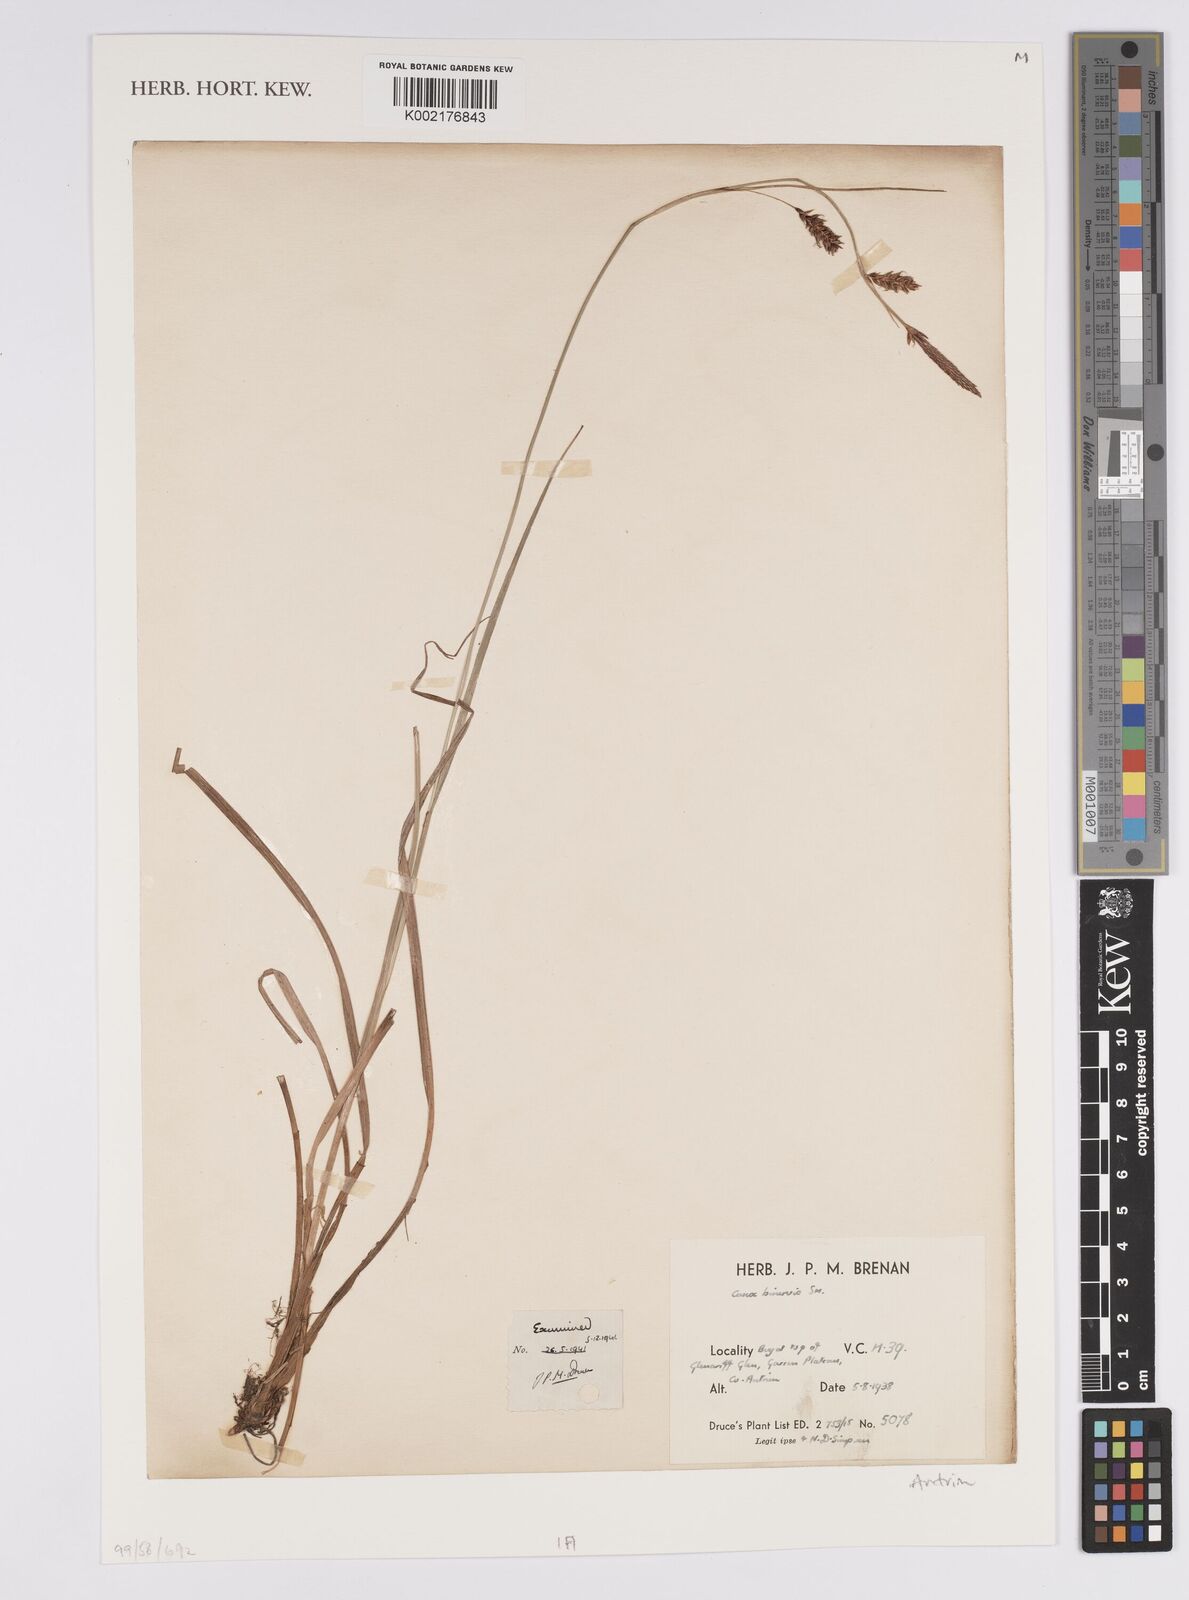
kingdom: Plantae
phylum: Tracheophyta
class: Liliopsida
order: Poales
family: Cyperaceae
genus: Carex
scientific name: Carex binervis
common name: Green-ribbed sedge
